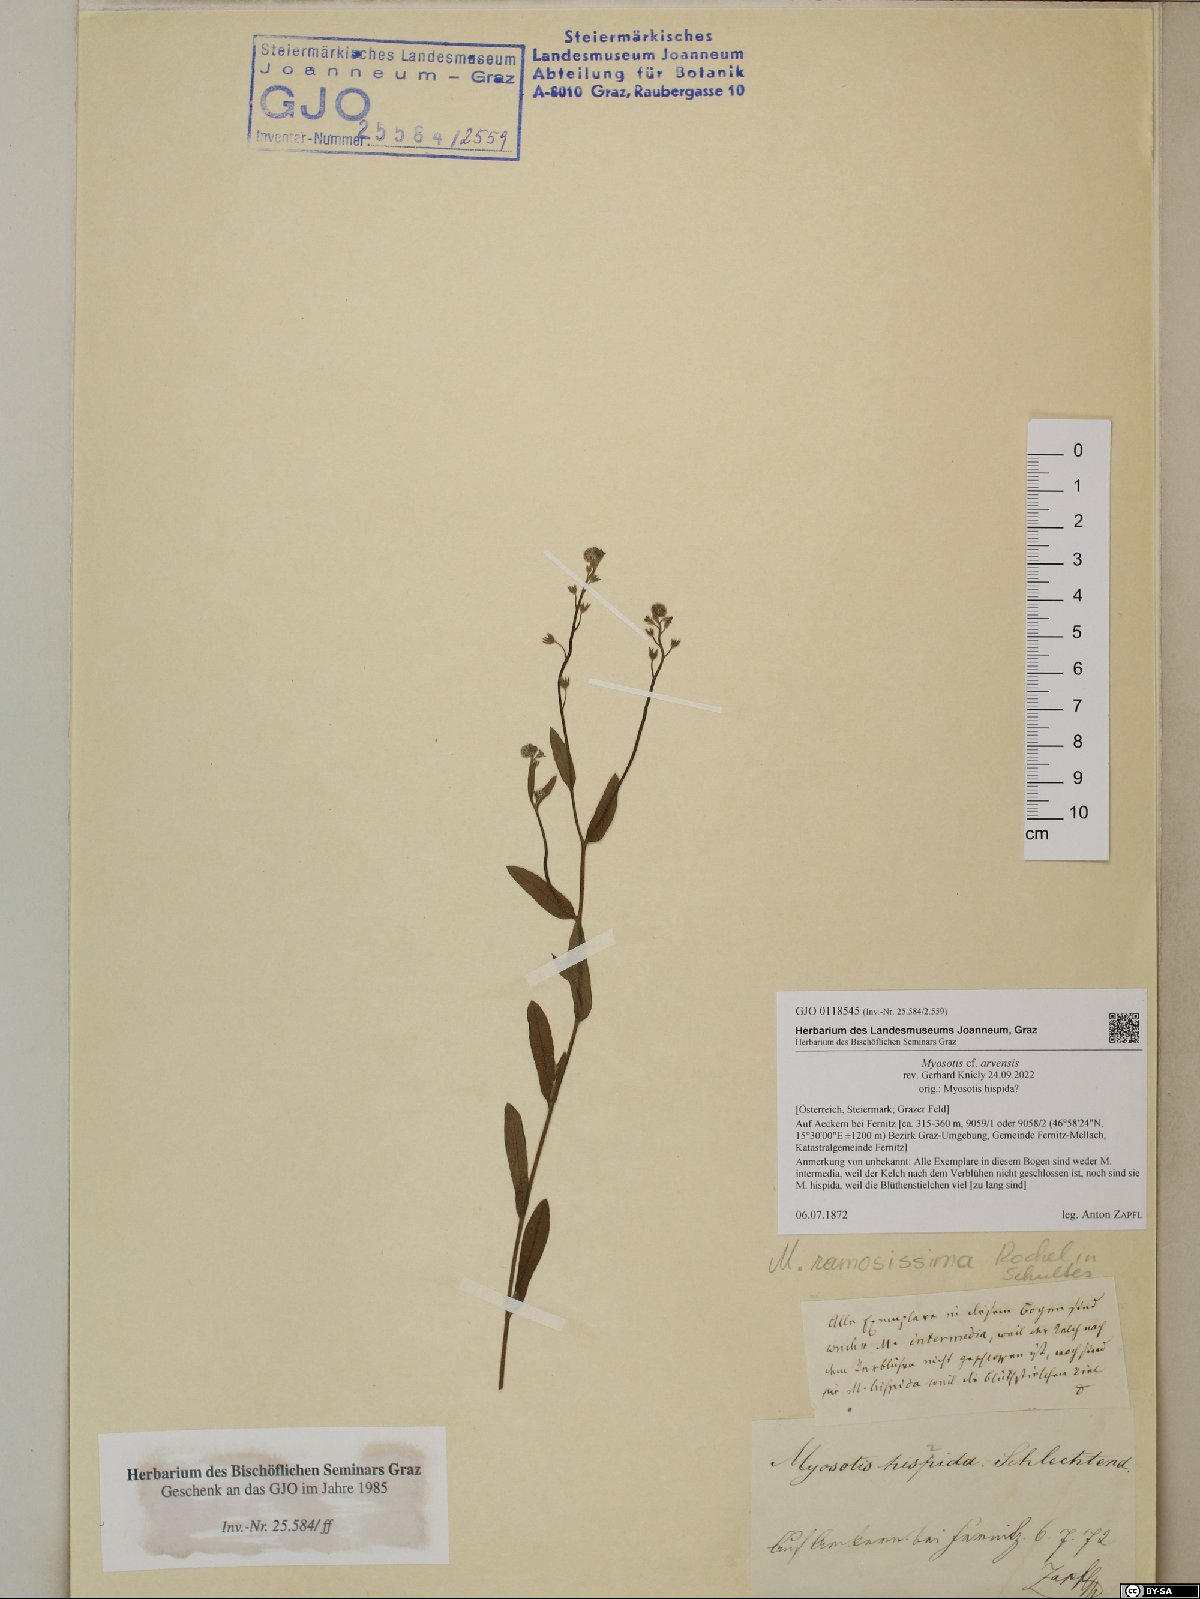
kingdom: Plantae
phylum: Tracheophyta
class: Magnoliopsida
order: Boraginales
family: Boraginaceae
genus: Myosotis
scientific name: Myosotis arvensis
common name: Field forget-me-not
